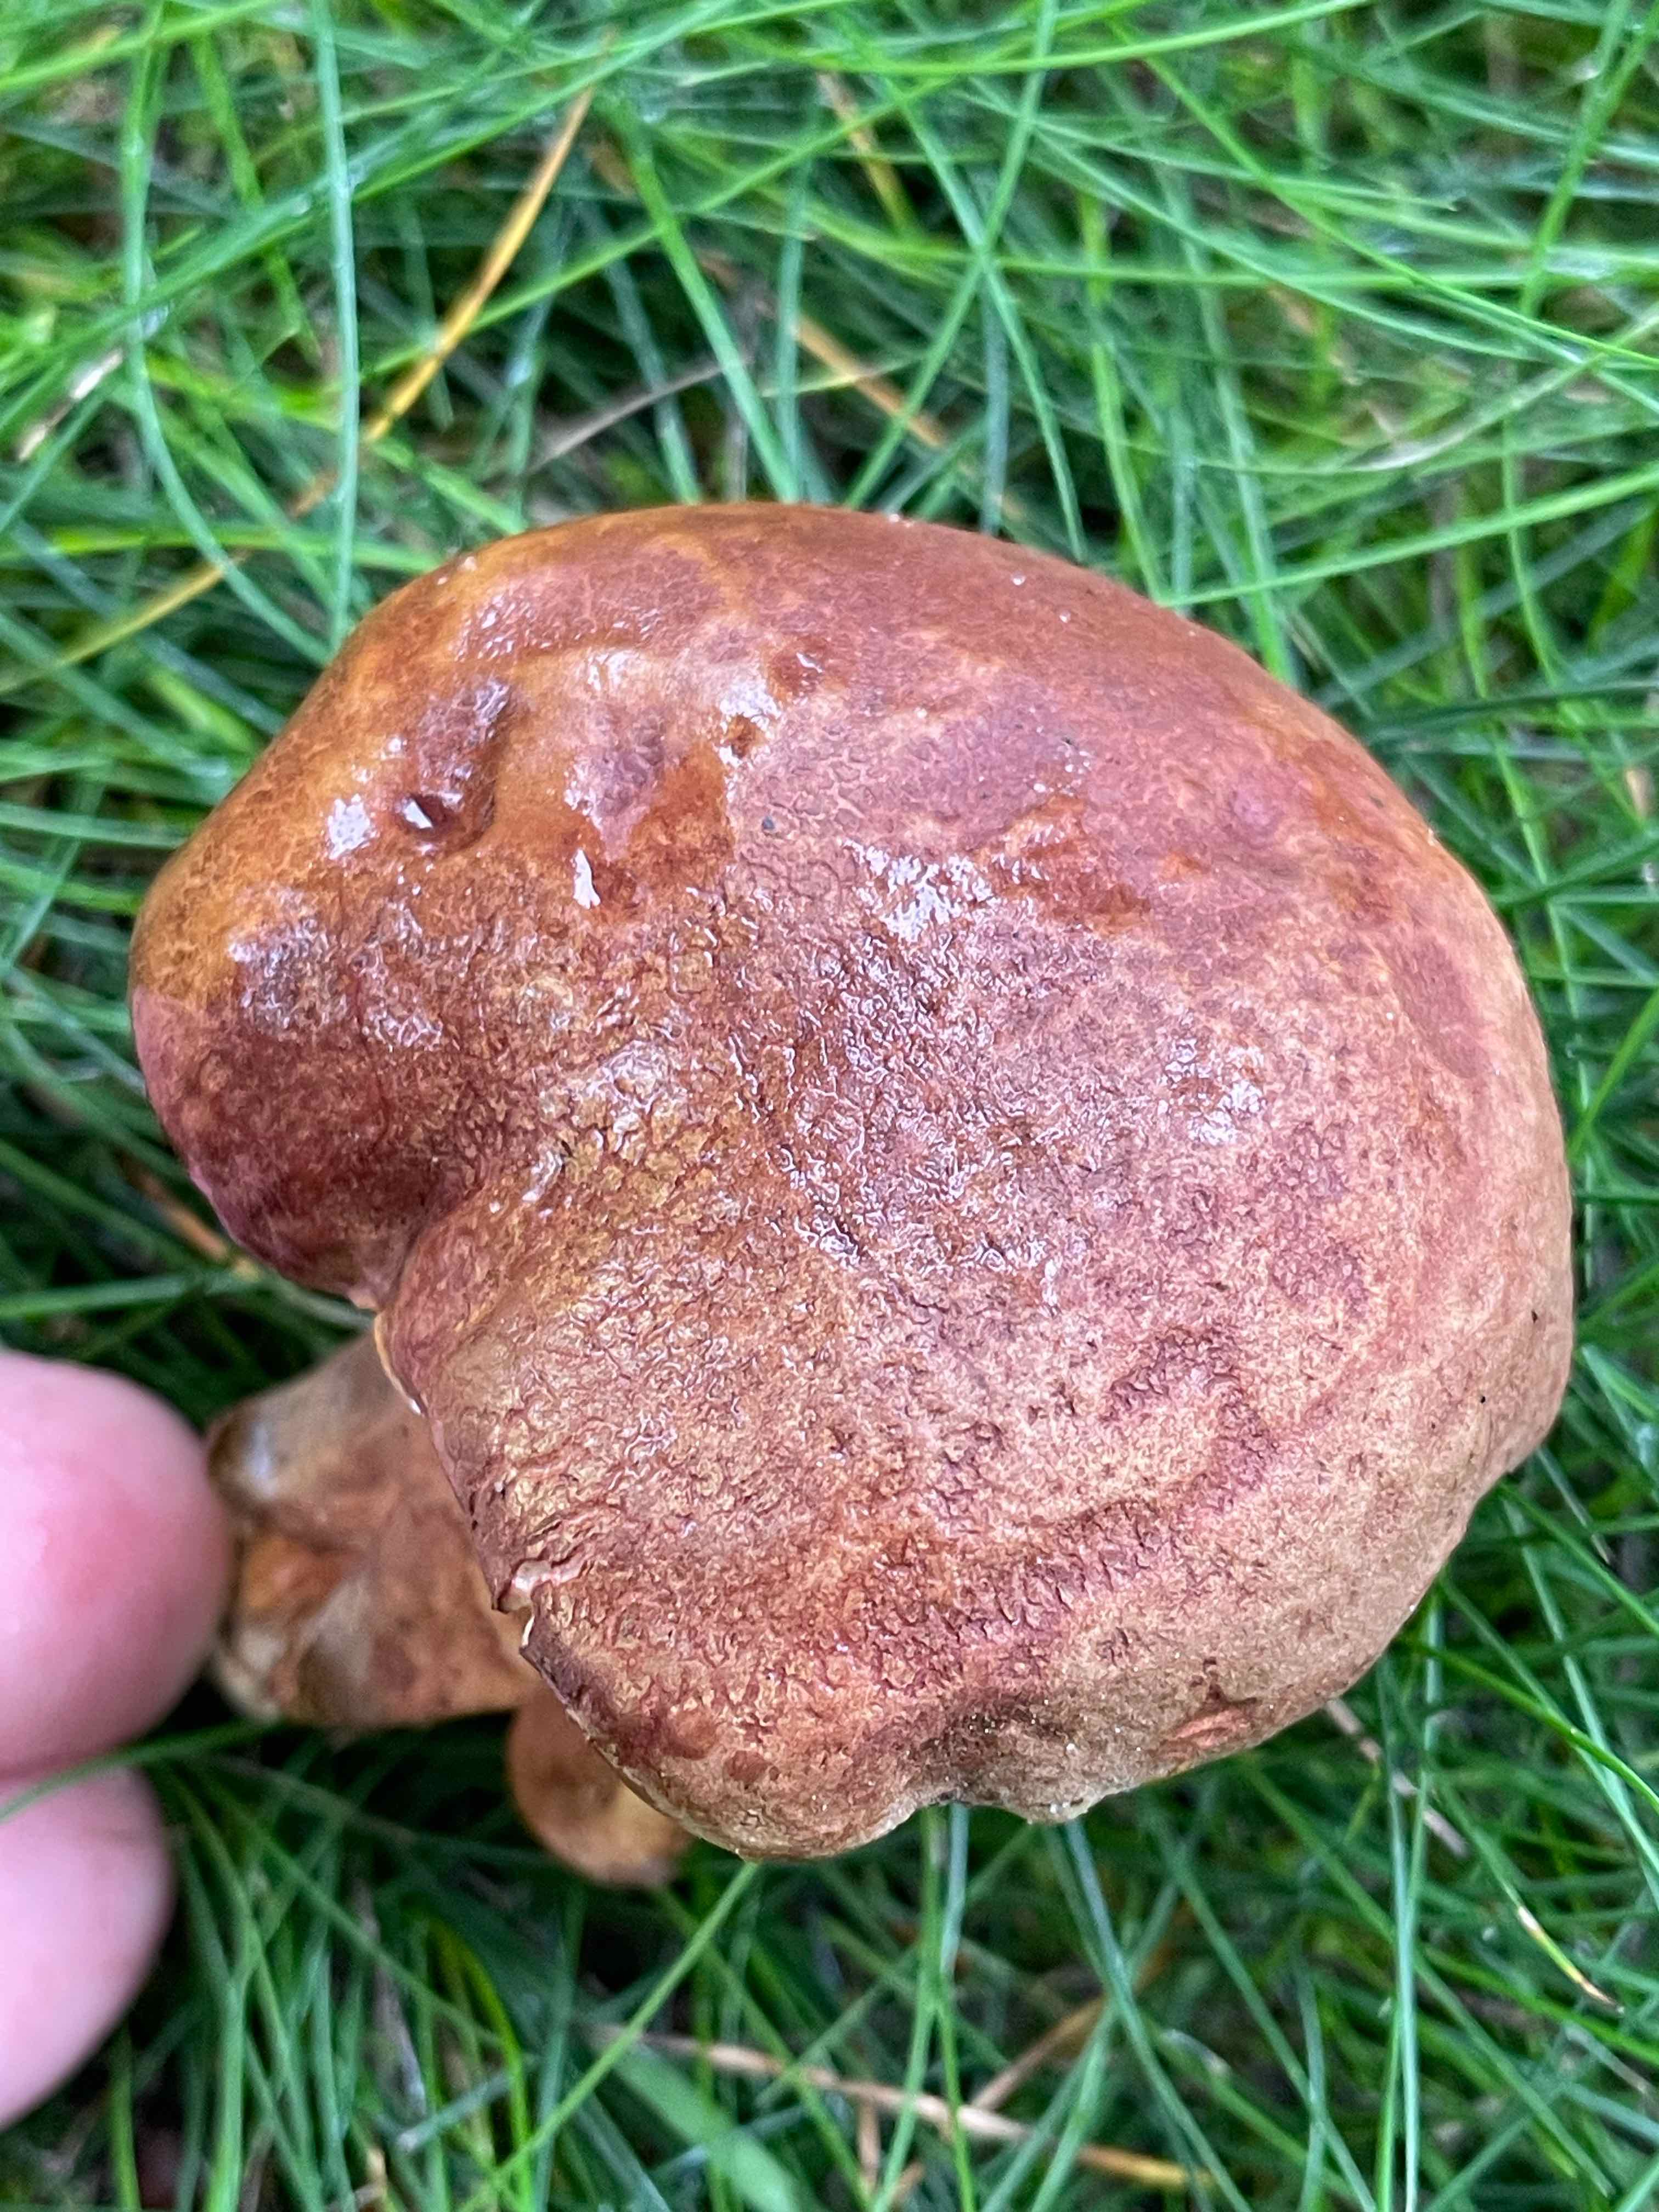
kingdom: Fungi
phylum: Basidiomycota
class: Agaricomycetes
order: Boletales
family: Boletaceae
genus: Xerocomus
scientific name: Xerocomus subtomentosus
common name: filtet rørhat
